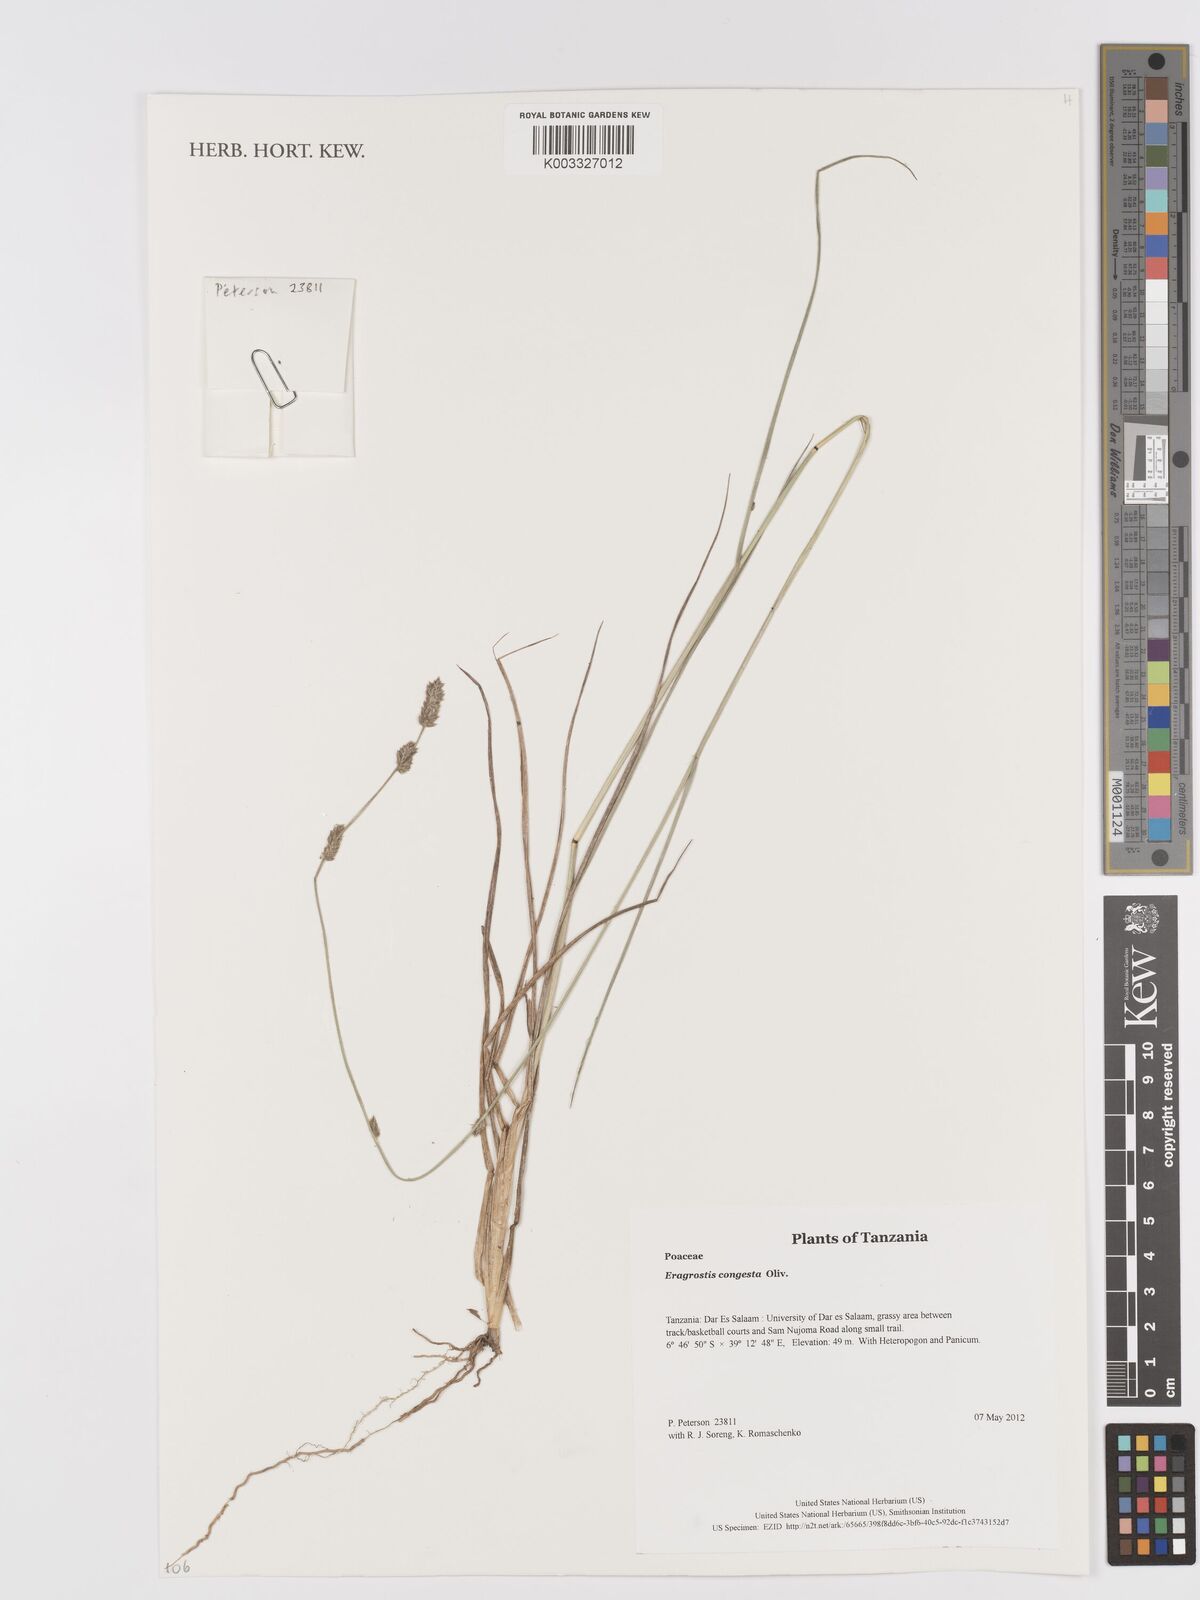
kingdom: Plantae
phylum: Tracheophyta
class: Liliopsida
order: Poales
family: Poaceae
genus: Eragrostis
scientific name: Eragrostis congesta
